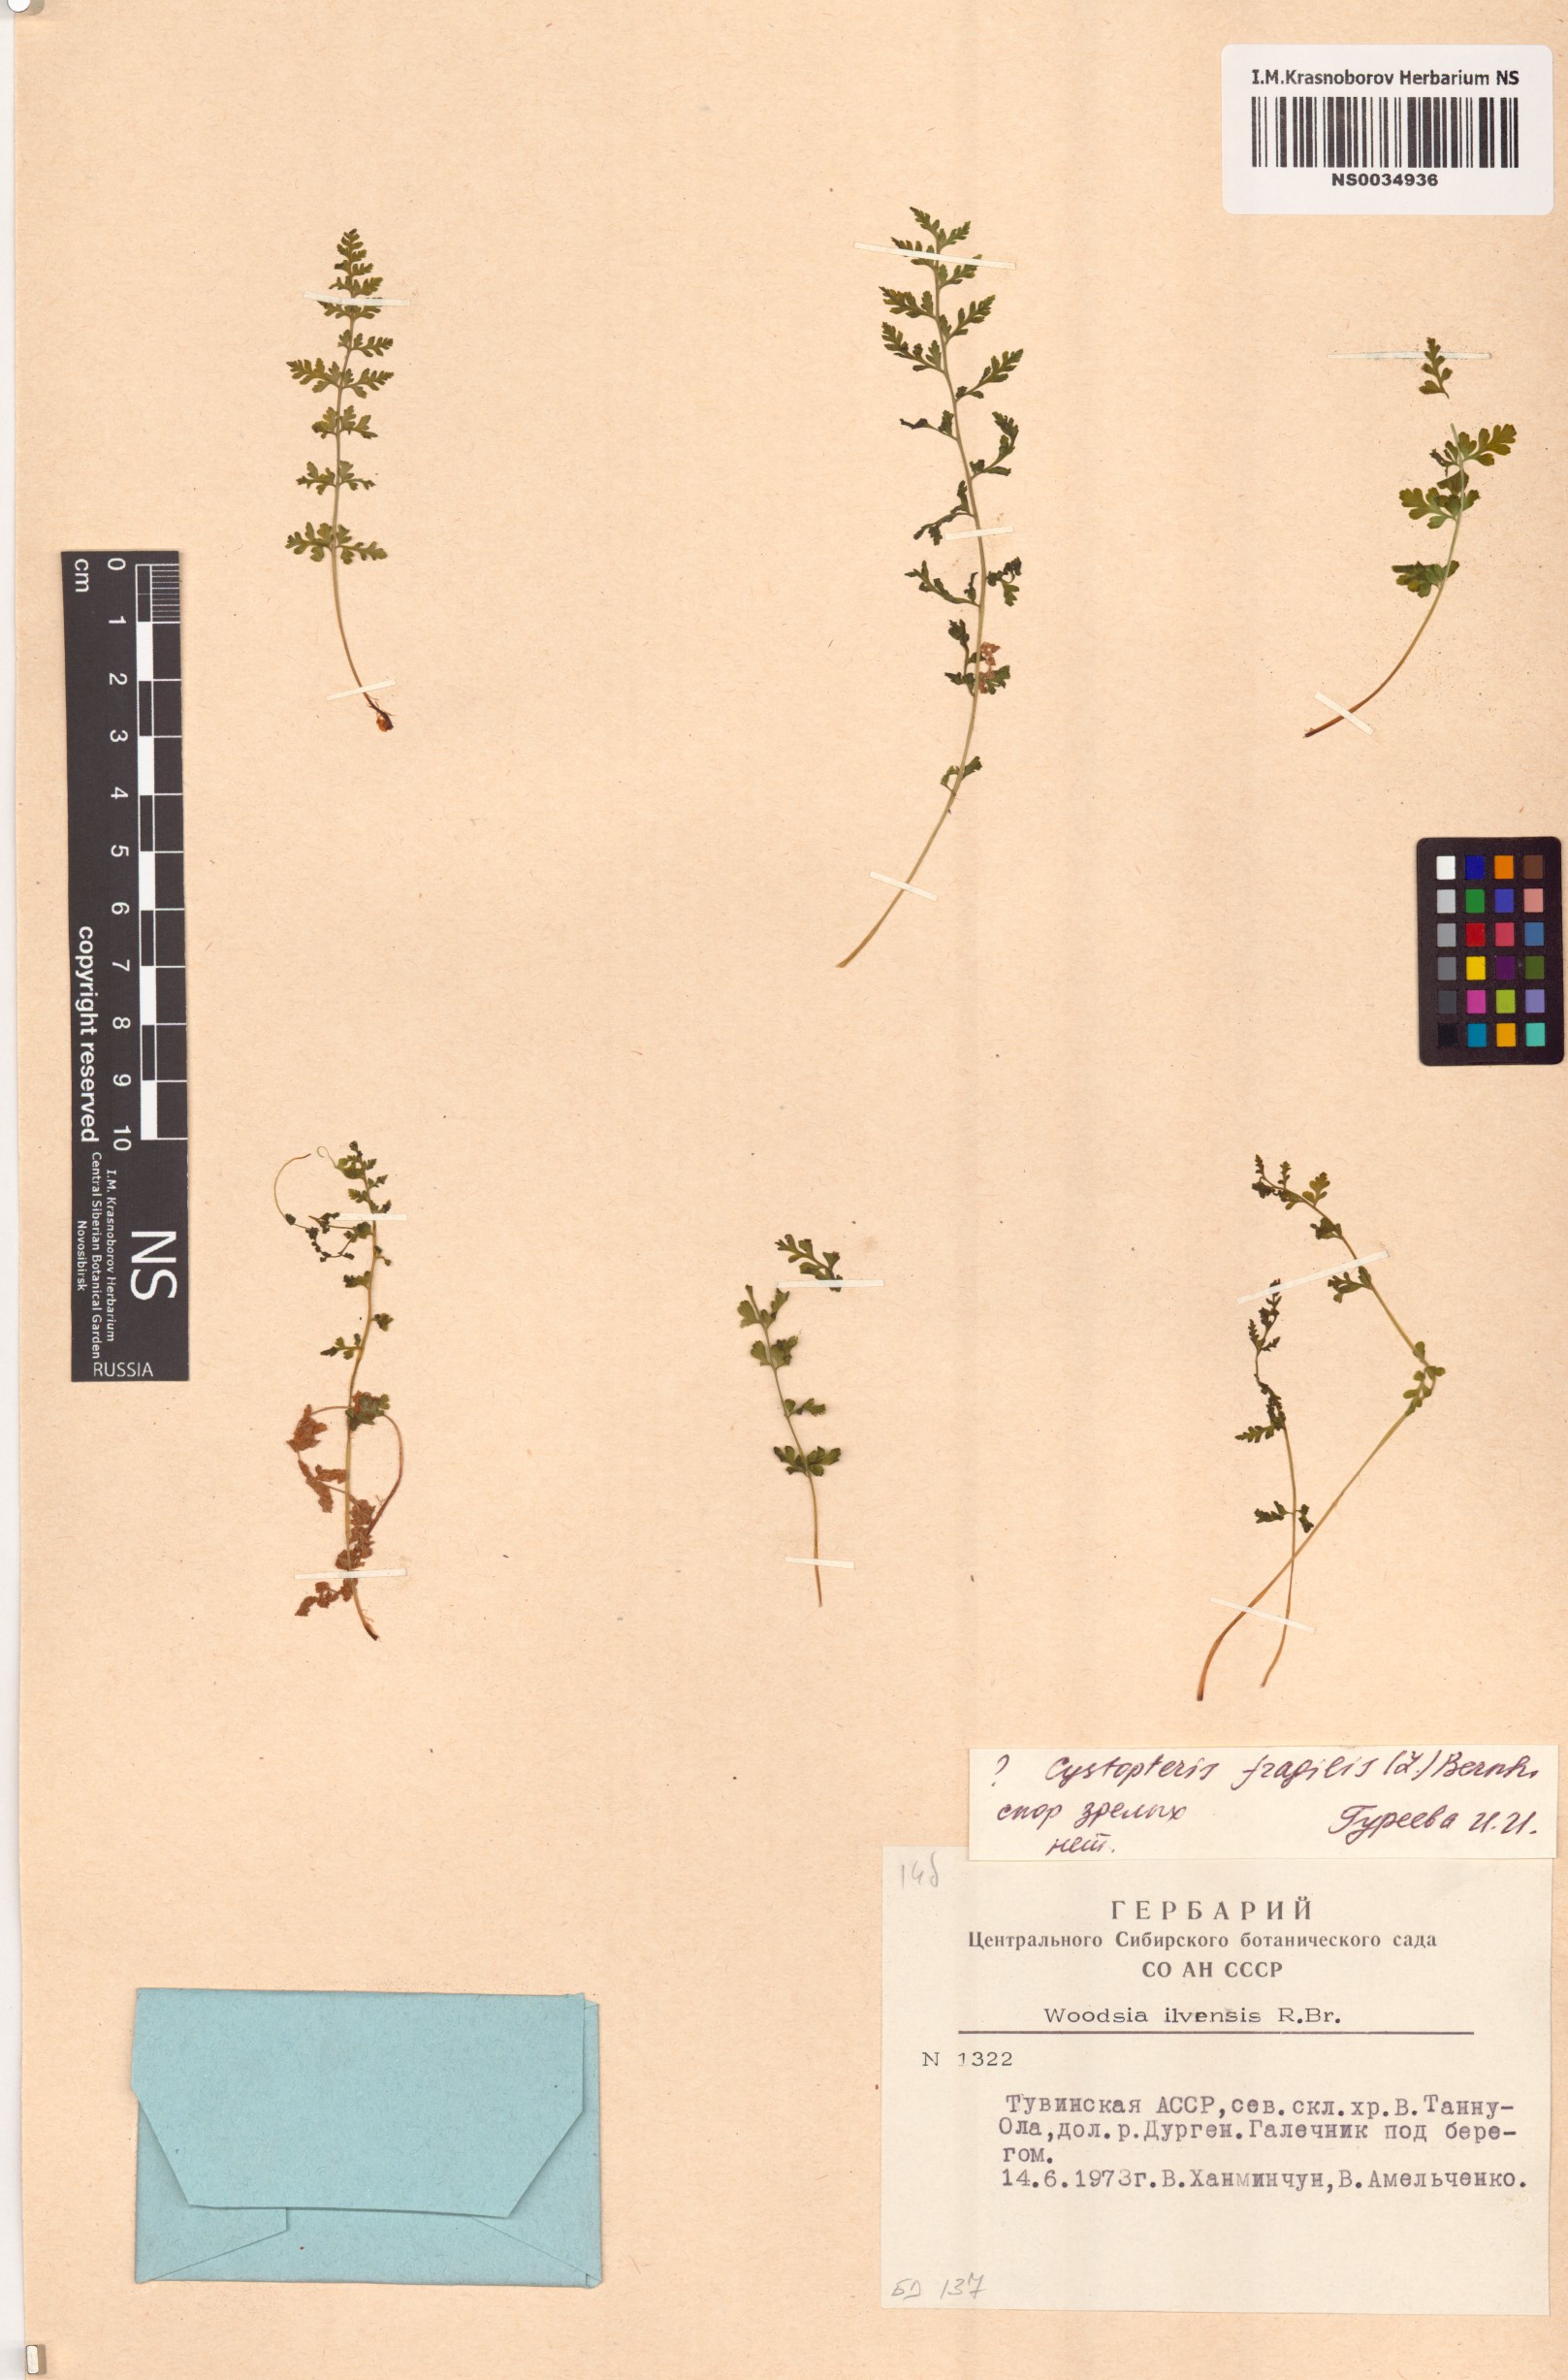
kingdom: Plantae
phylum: Tracheophyta
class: Polypodiopsida
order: Polypodiales
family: Cystopteridaceae
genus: Cystopteris
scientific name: Cystopteris fragilis
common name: Brittle bladder fern
